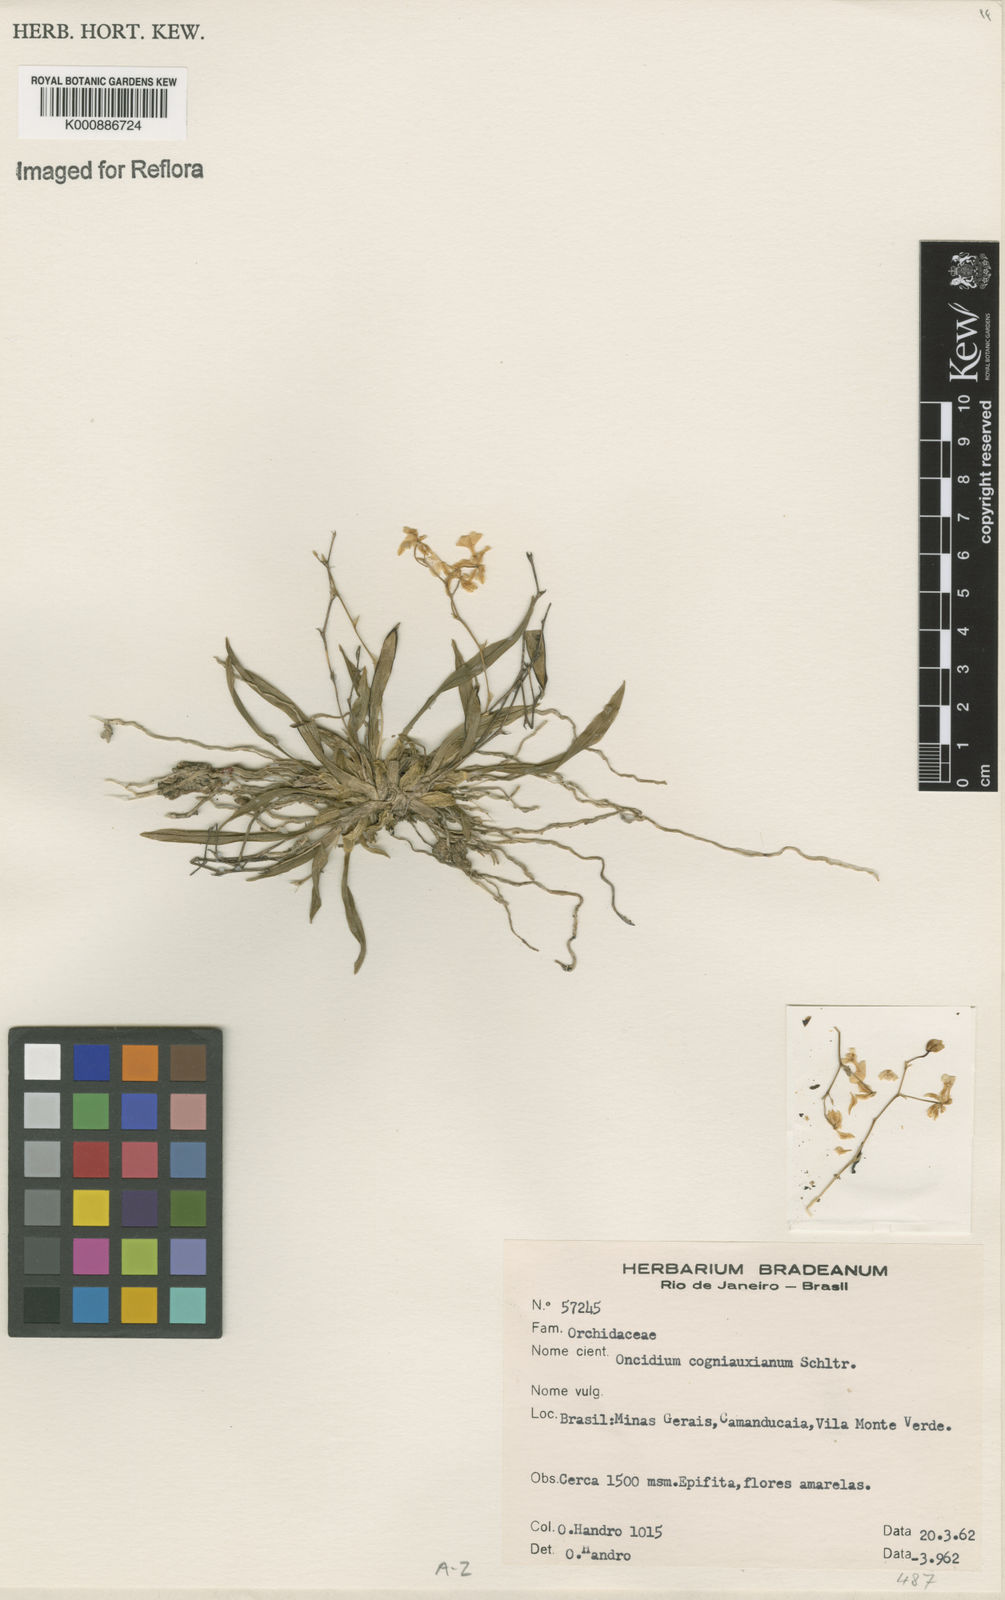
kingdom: Plantae
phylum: Tracheophyta
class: Liliopsida
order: Asparagales
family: Orchidaceae
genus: Gomesa
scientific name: Gomesa cogniauxiana
